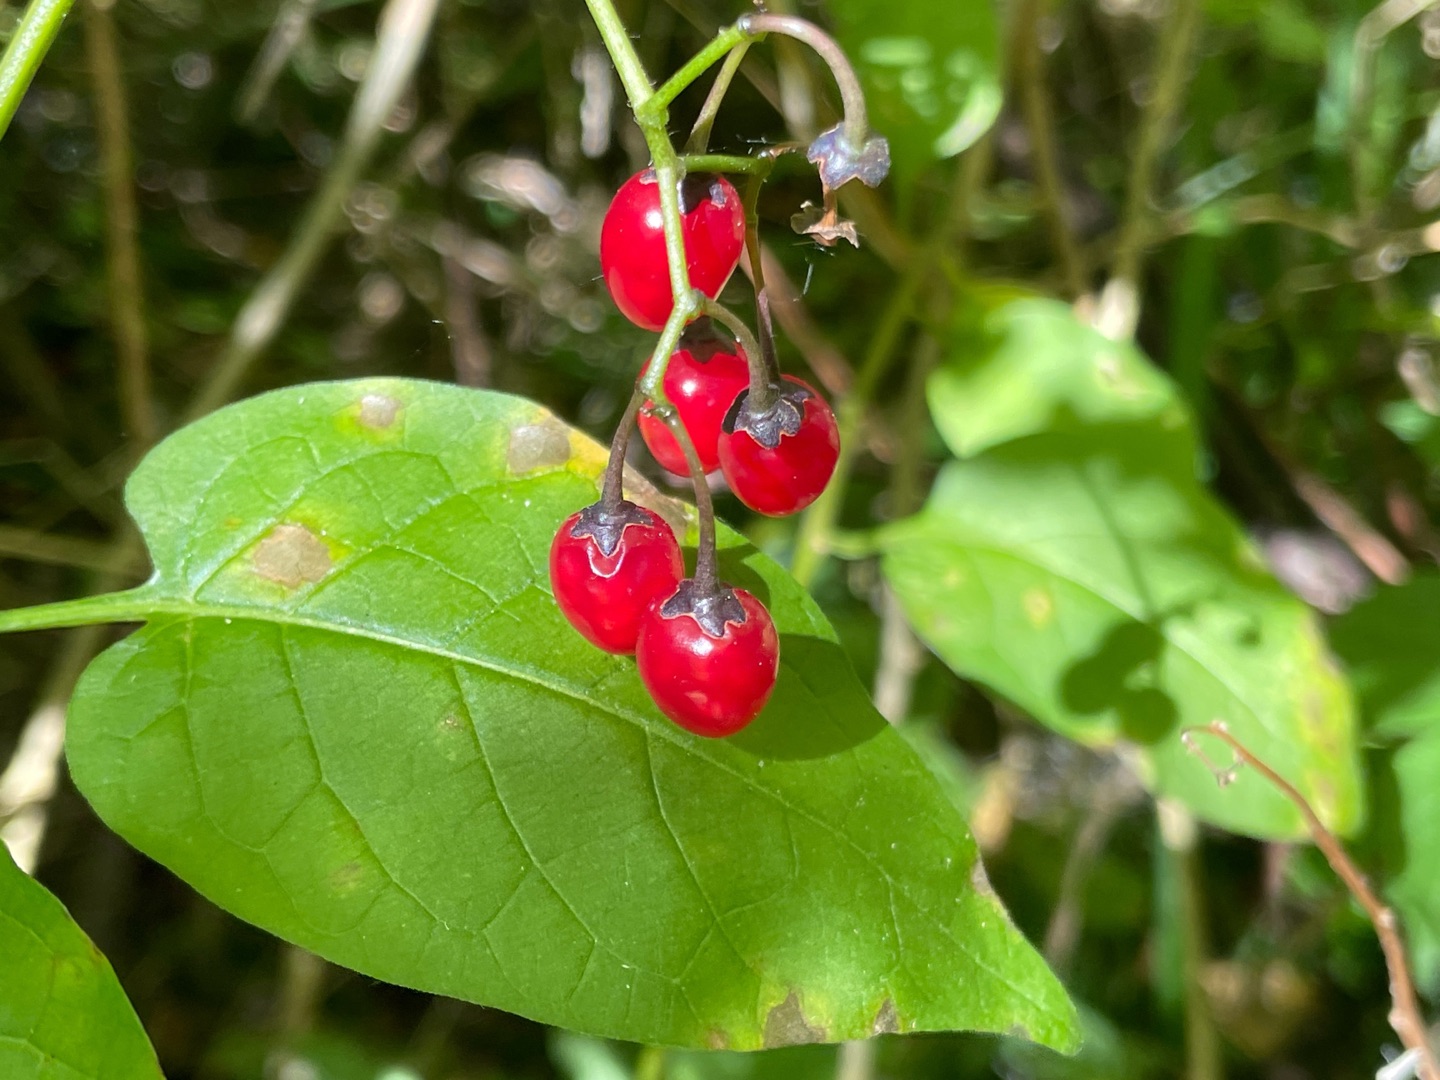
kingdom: Plantae
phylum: Tracheophyta
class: Magnoliopsida
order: Solanales
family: Solanaceae
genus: Solanum
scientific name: Solanum dulcamara
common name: Bittersød natskygge
